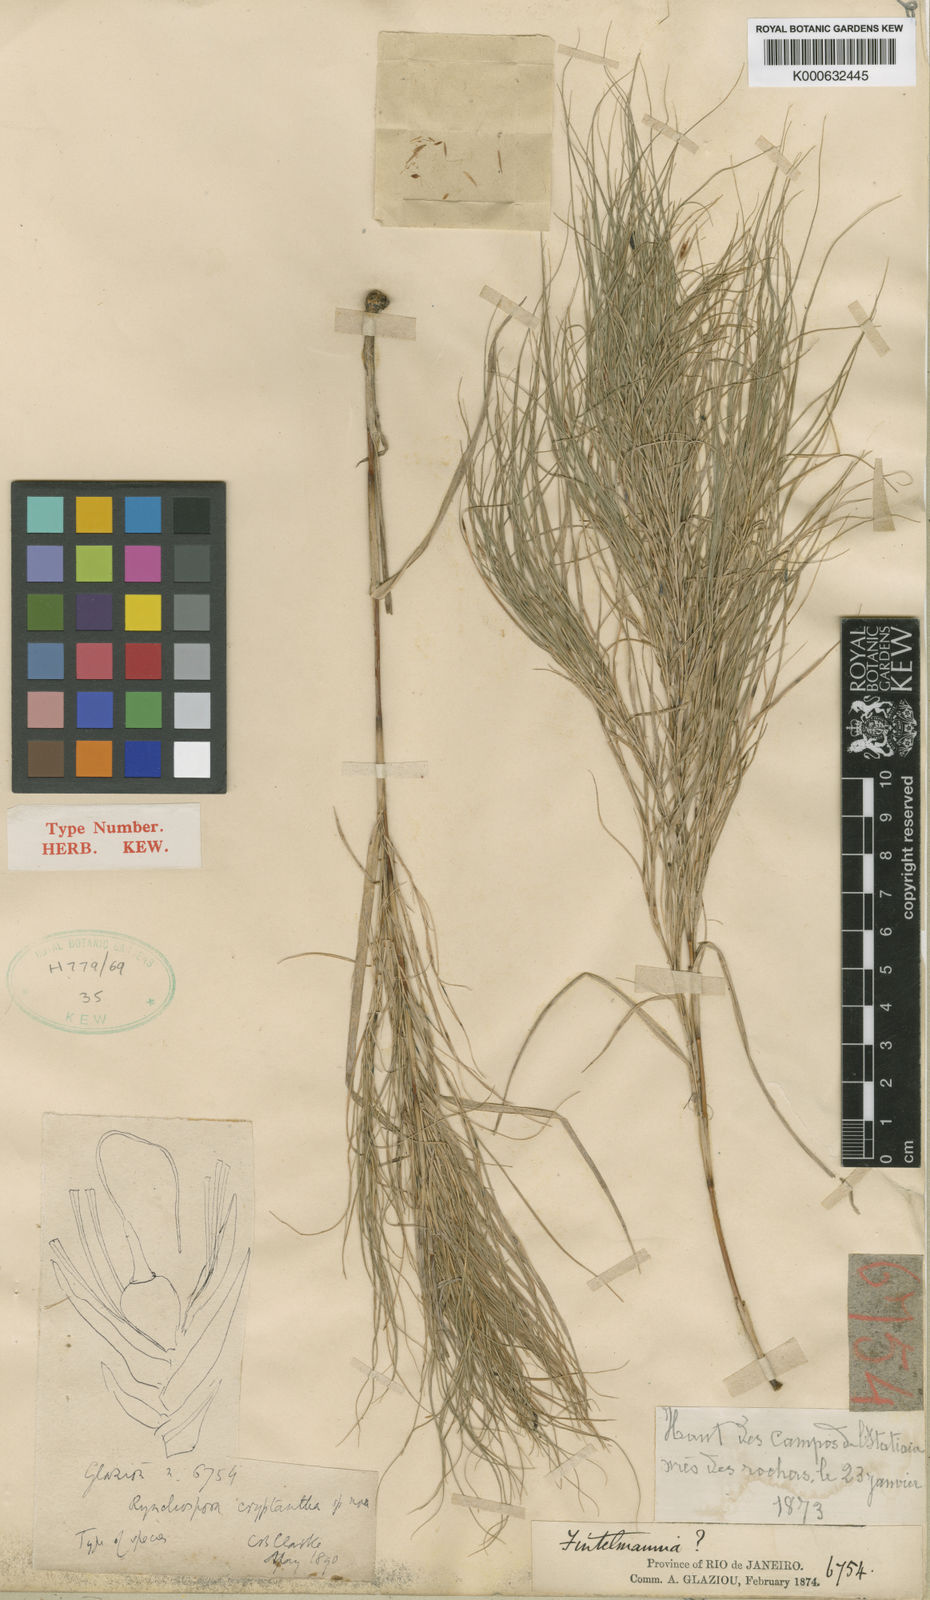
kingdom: Plantae
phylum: Tracheophyta
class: Liliopsida
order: Poales
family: Cyperaceae
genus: Rhynchospora
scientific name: Rhynchospora biflora
